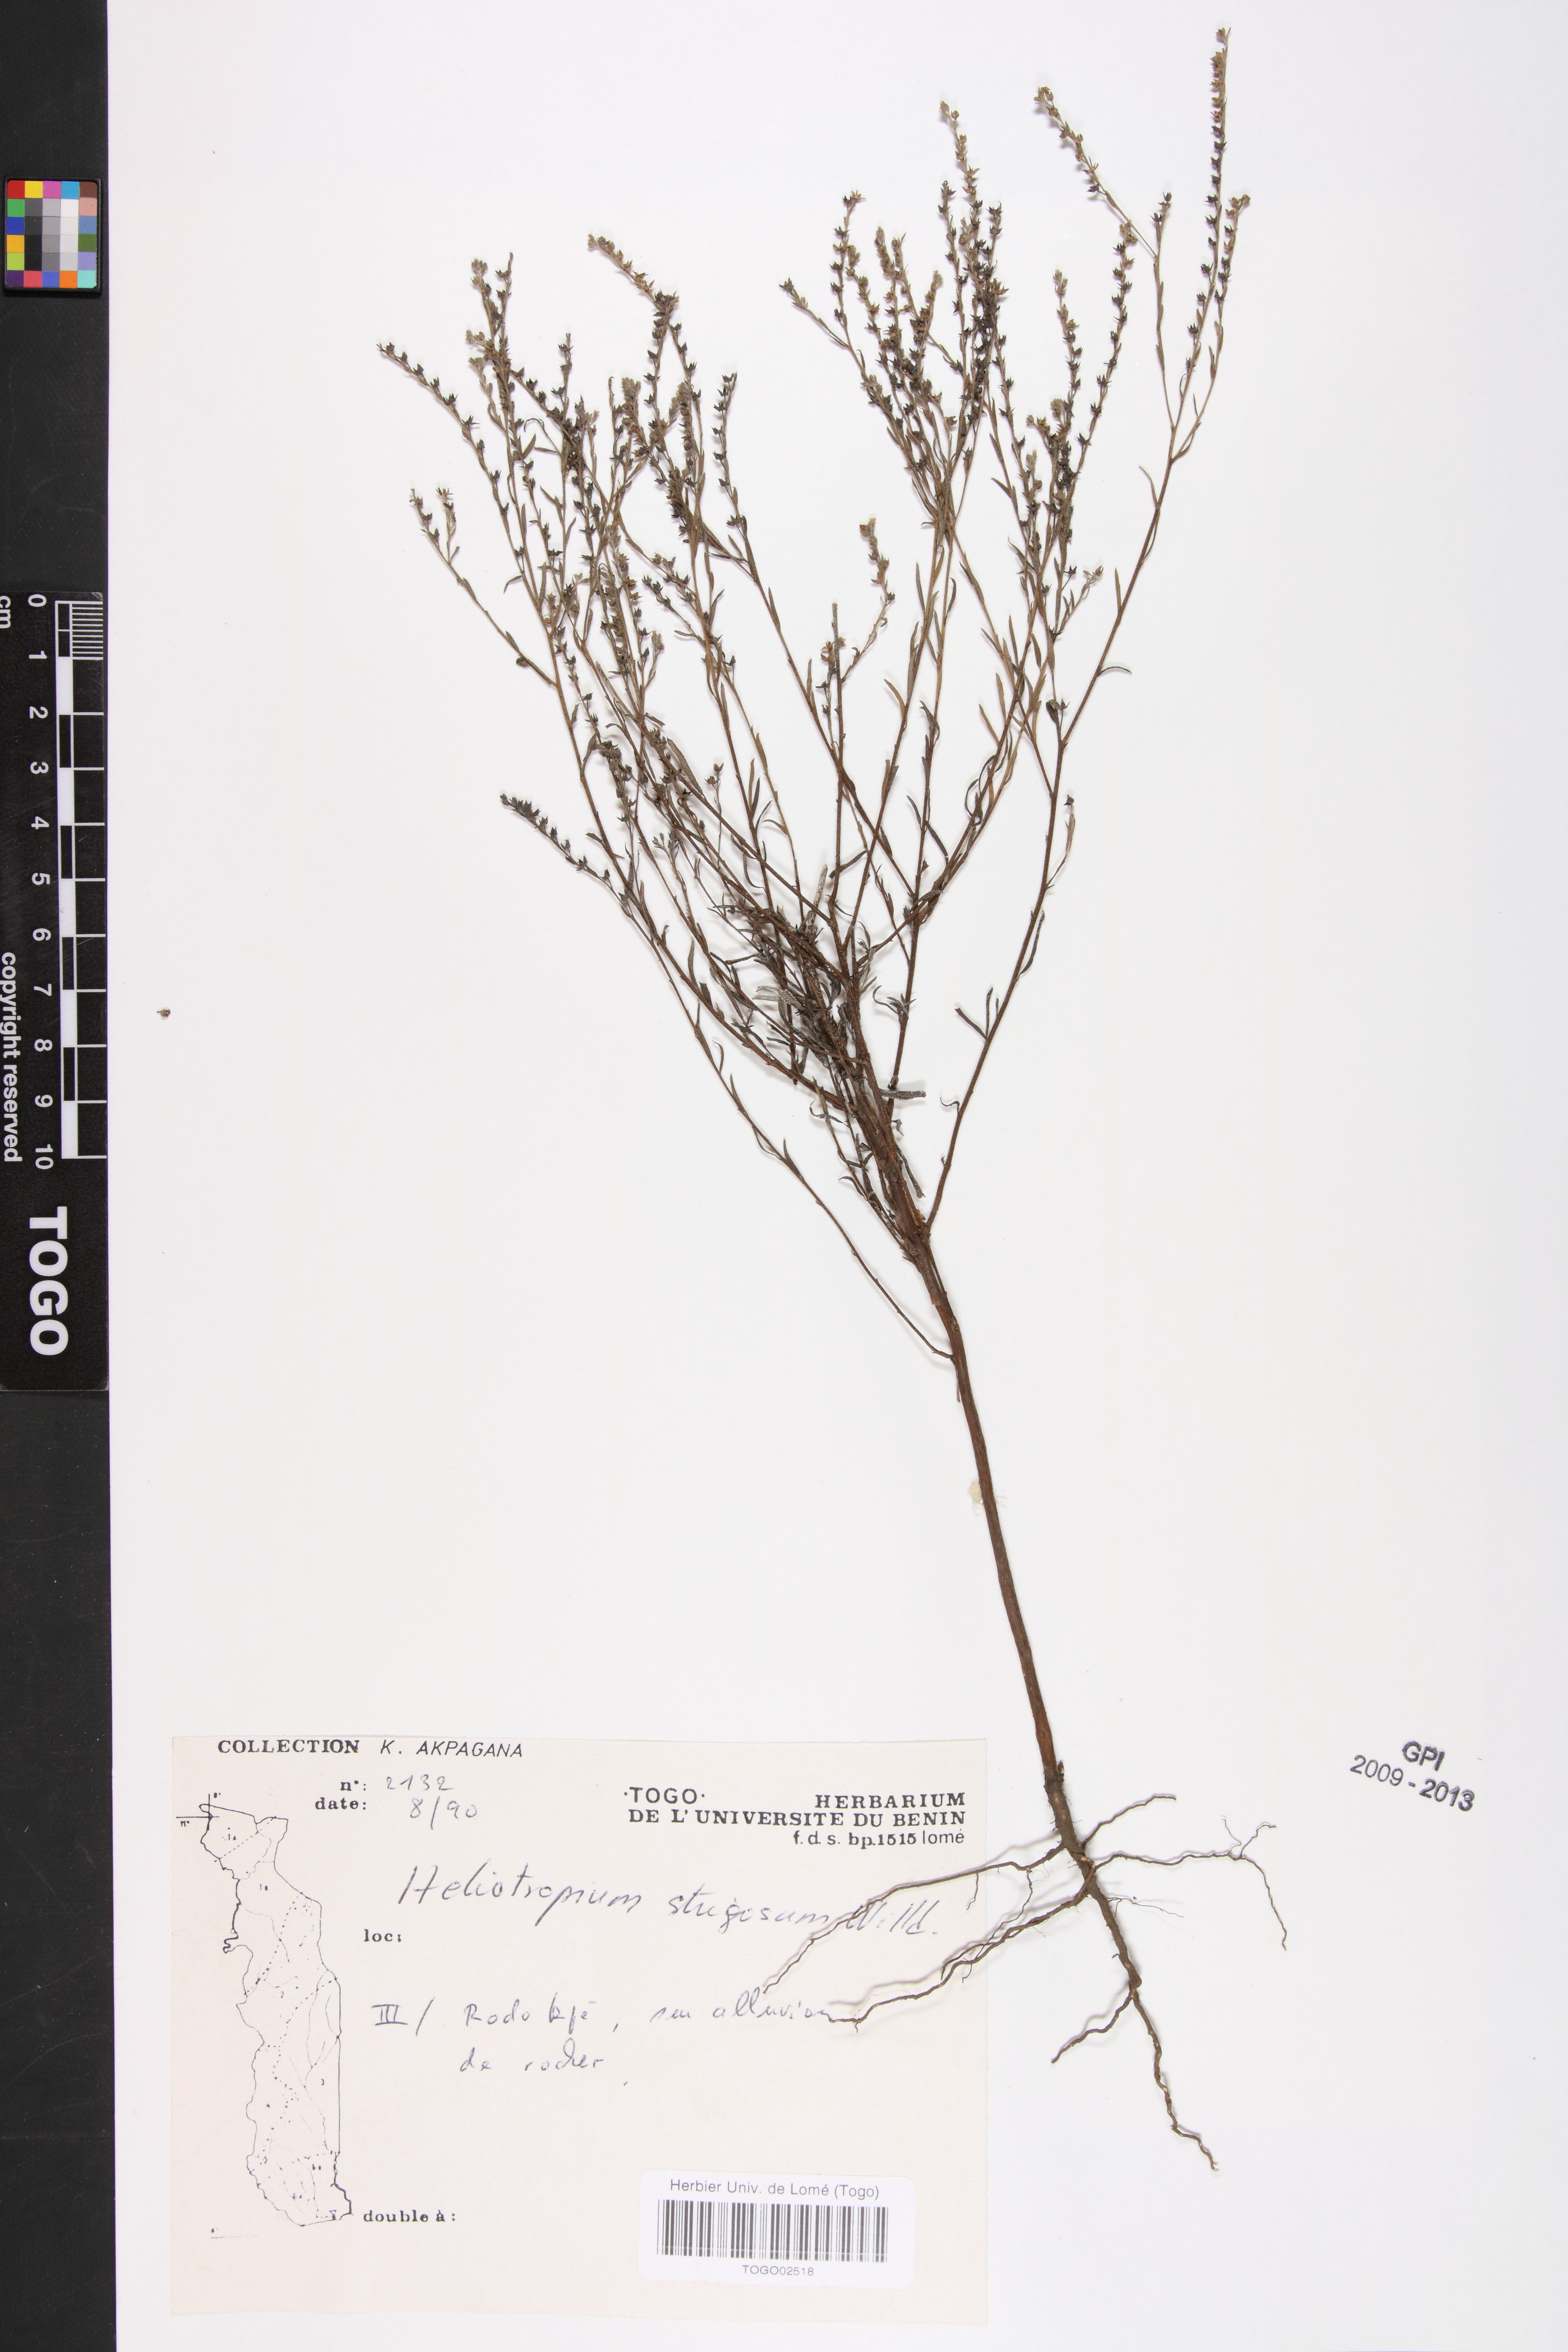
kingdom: Plantae
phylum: Tracheophyta
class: Magnoliopsida
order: Boraginales
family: Heliotropiaceae
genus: Euploca
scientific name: Euploca strigosa
